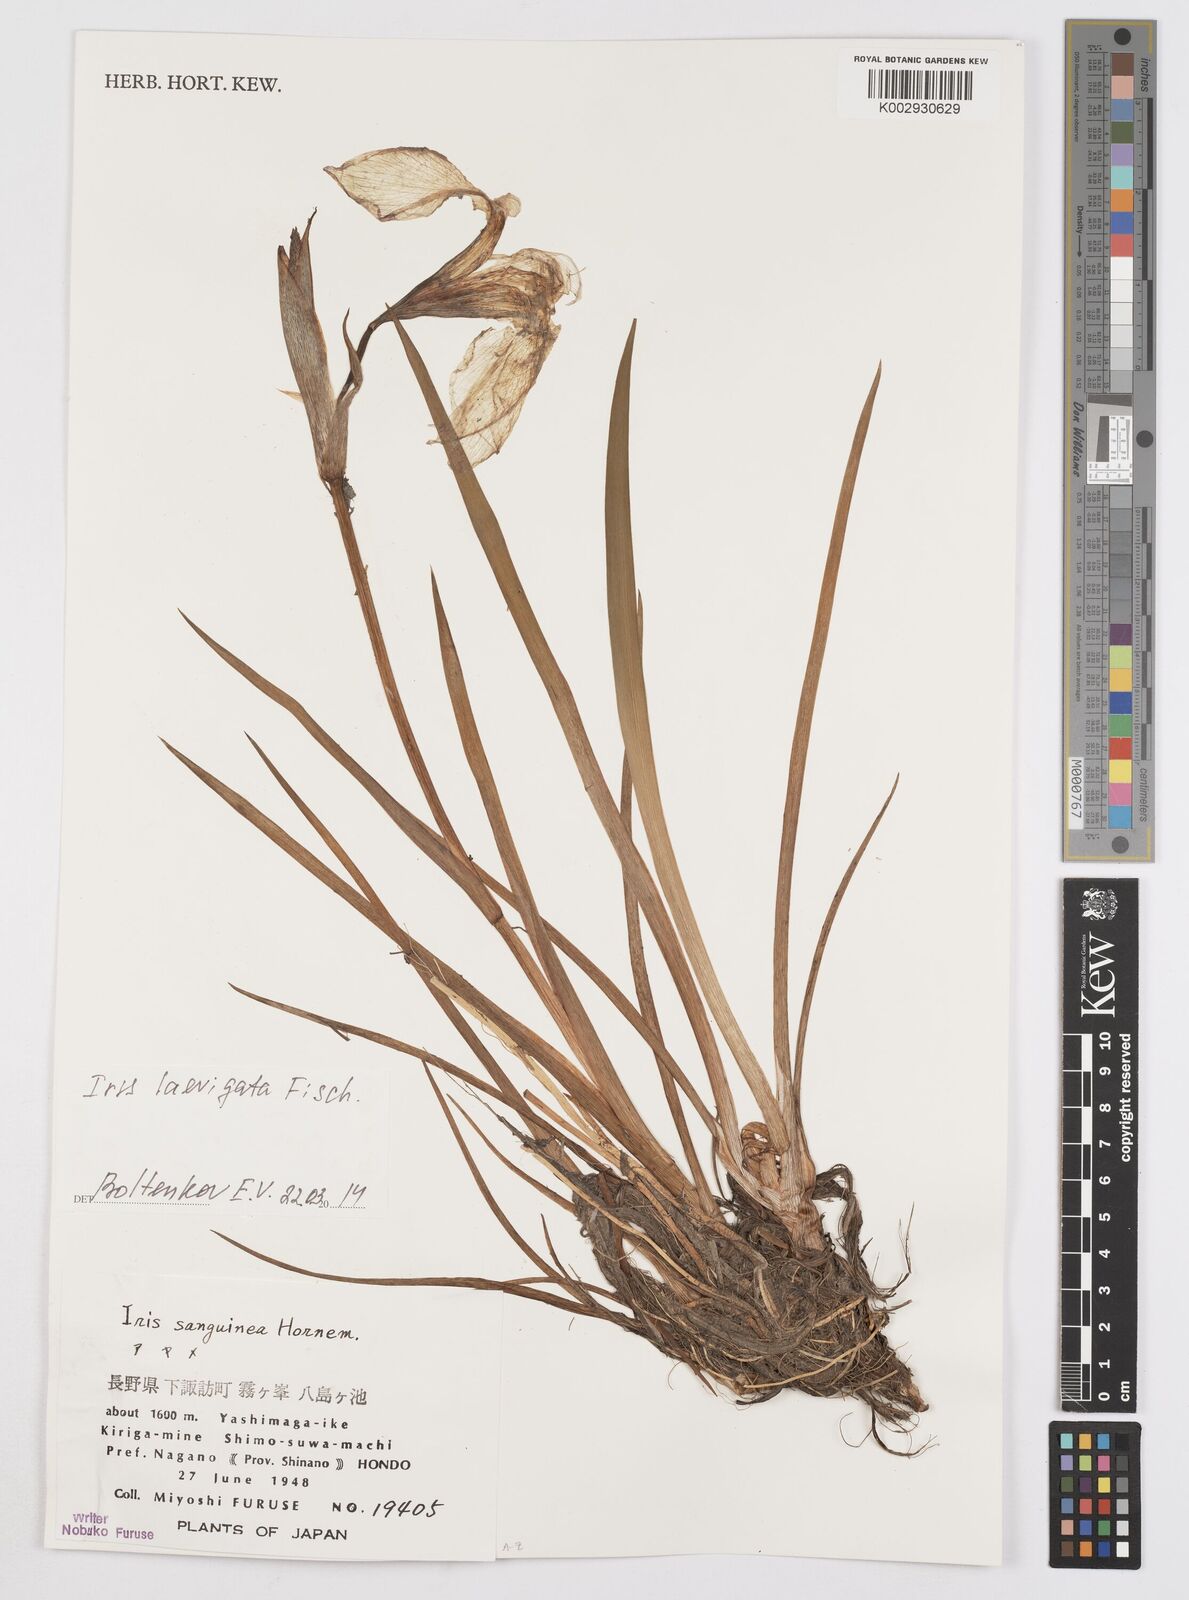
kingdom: Plantae
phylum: Tracheophyta
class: Liliopsida
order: Asparagales
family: Iridaceae
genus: Iris
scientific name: Iris laevigata
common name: Japanese iris
